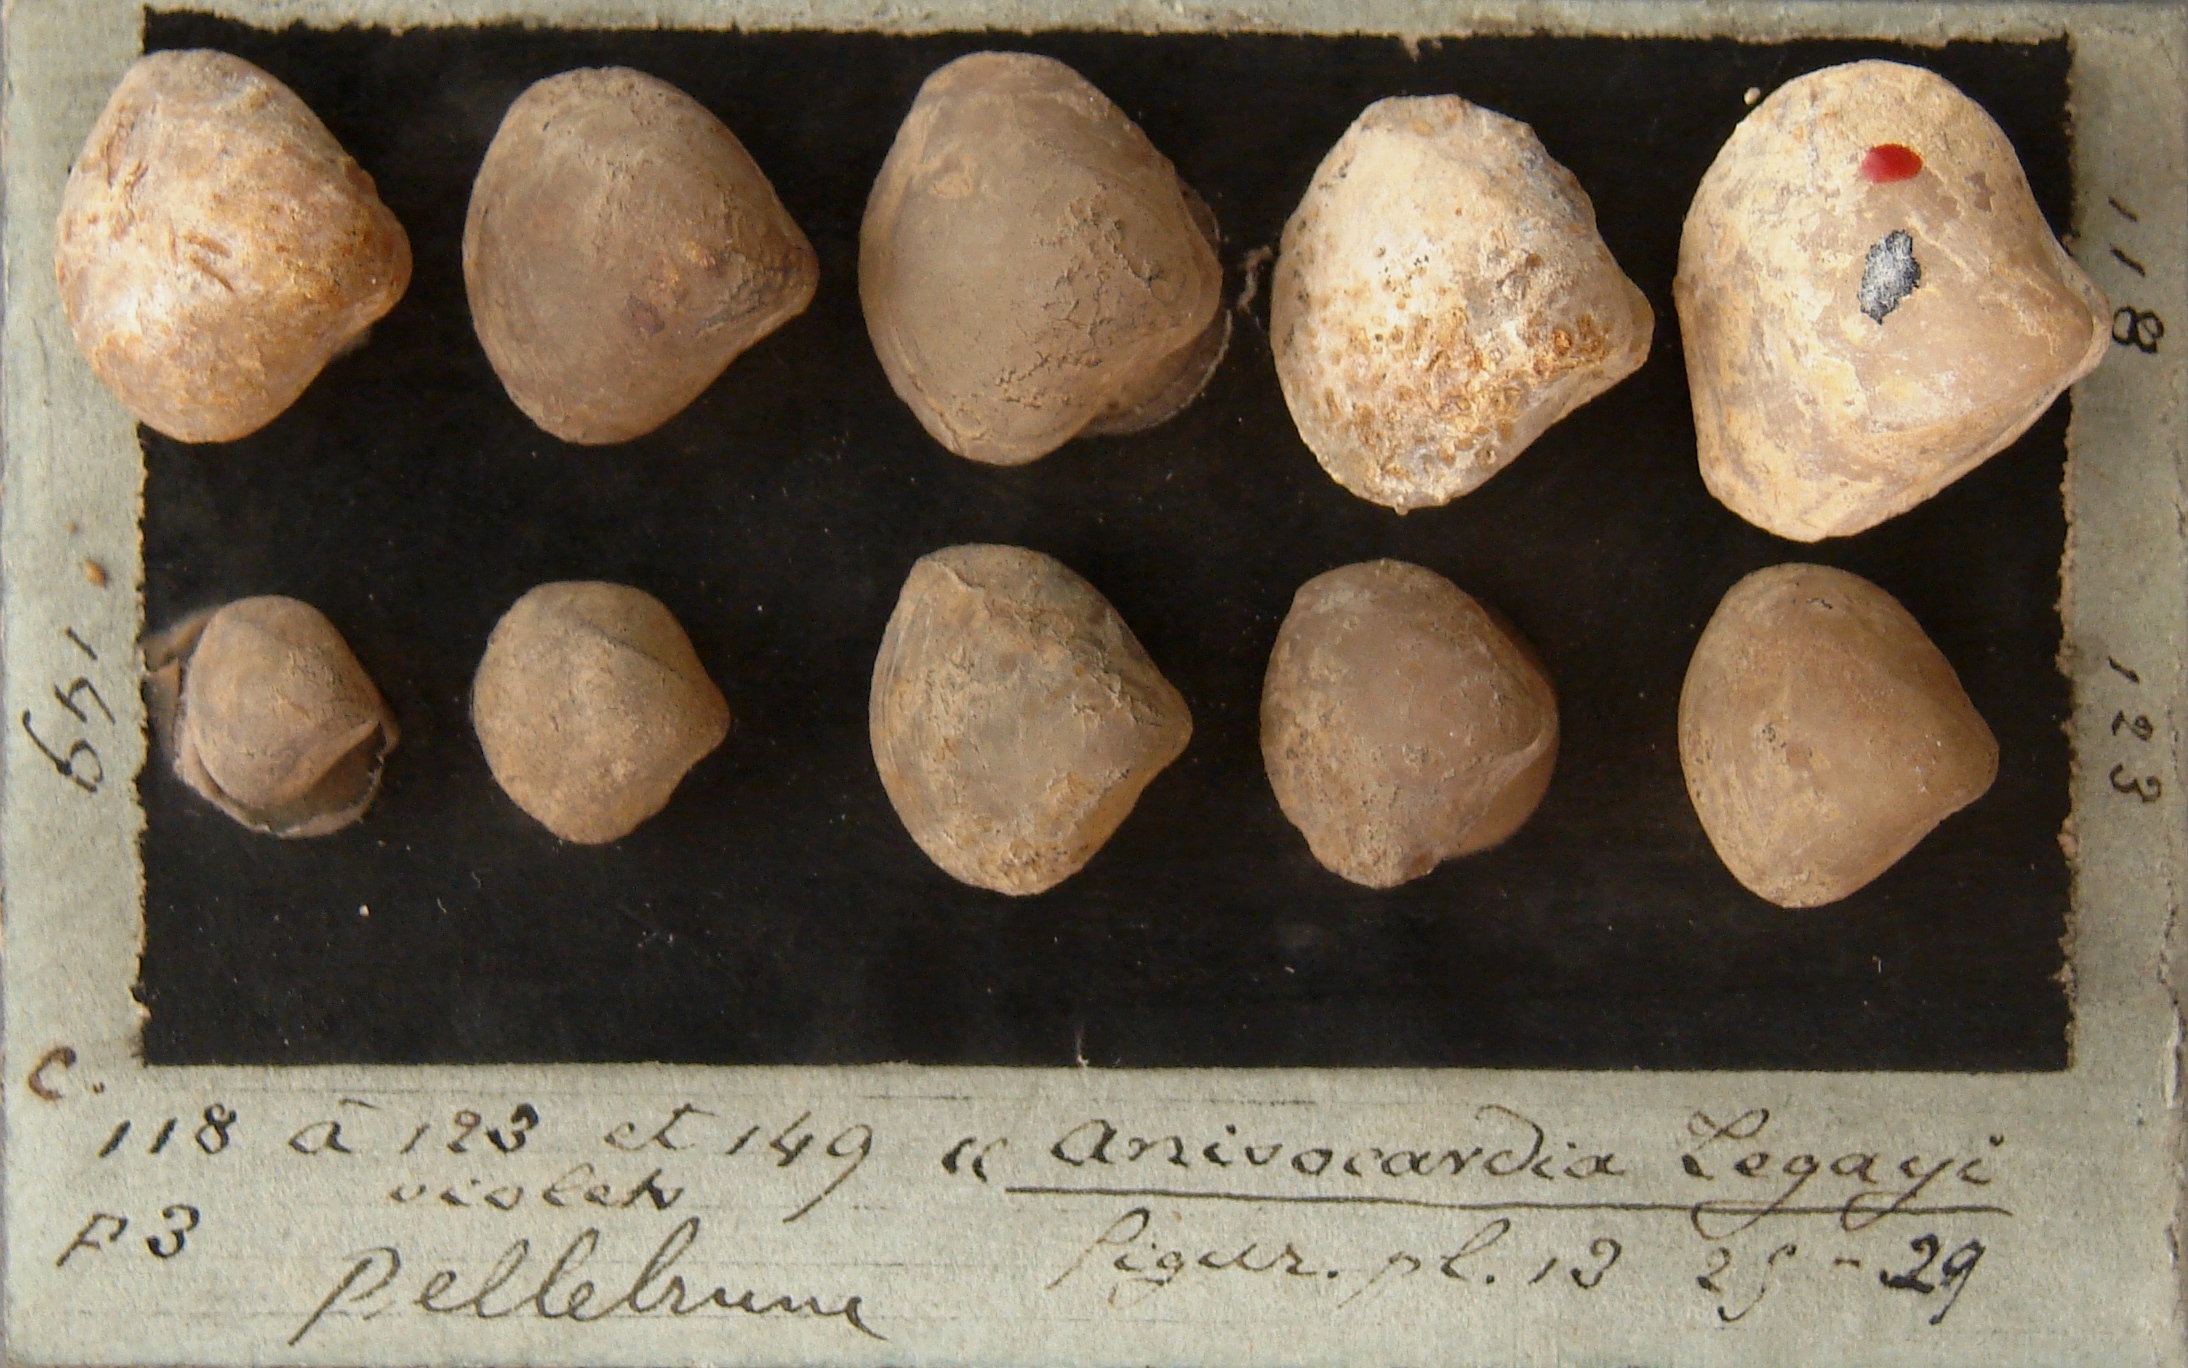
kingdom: Animalia
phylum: Mollusca
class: Bivalvia
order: Venerida
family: Arcticidae
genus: Anisocardia
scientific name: Anisocardia
